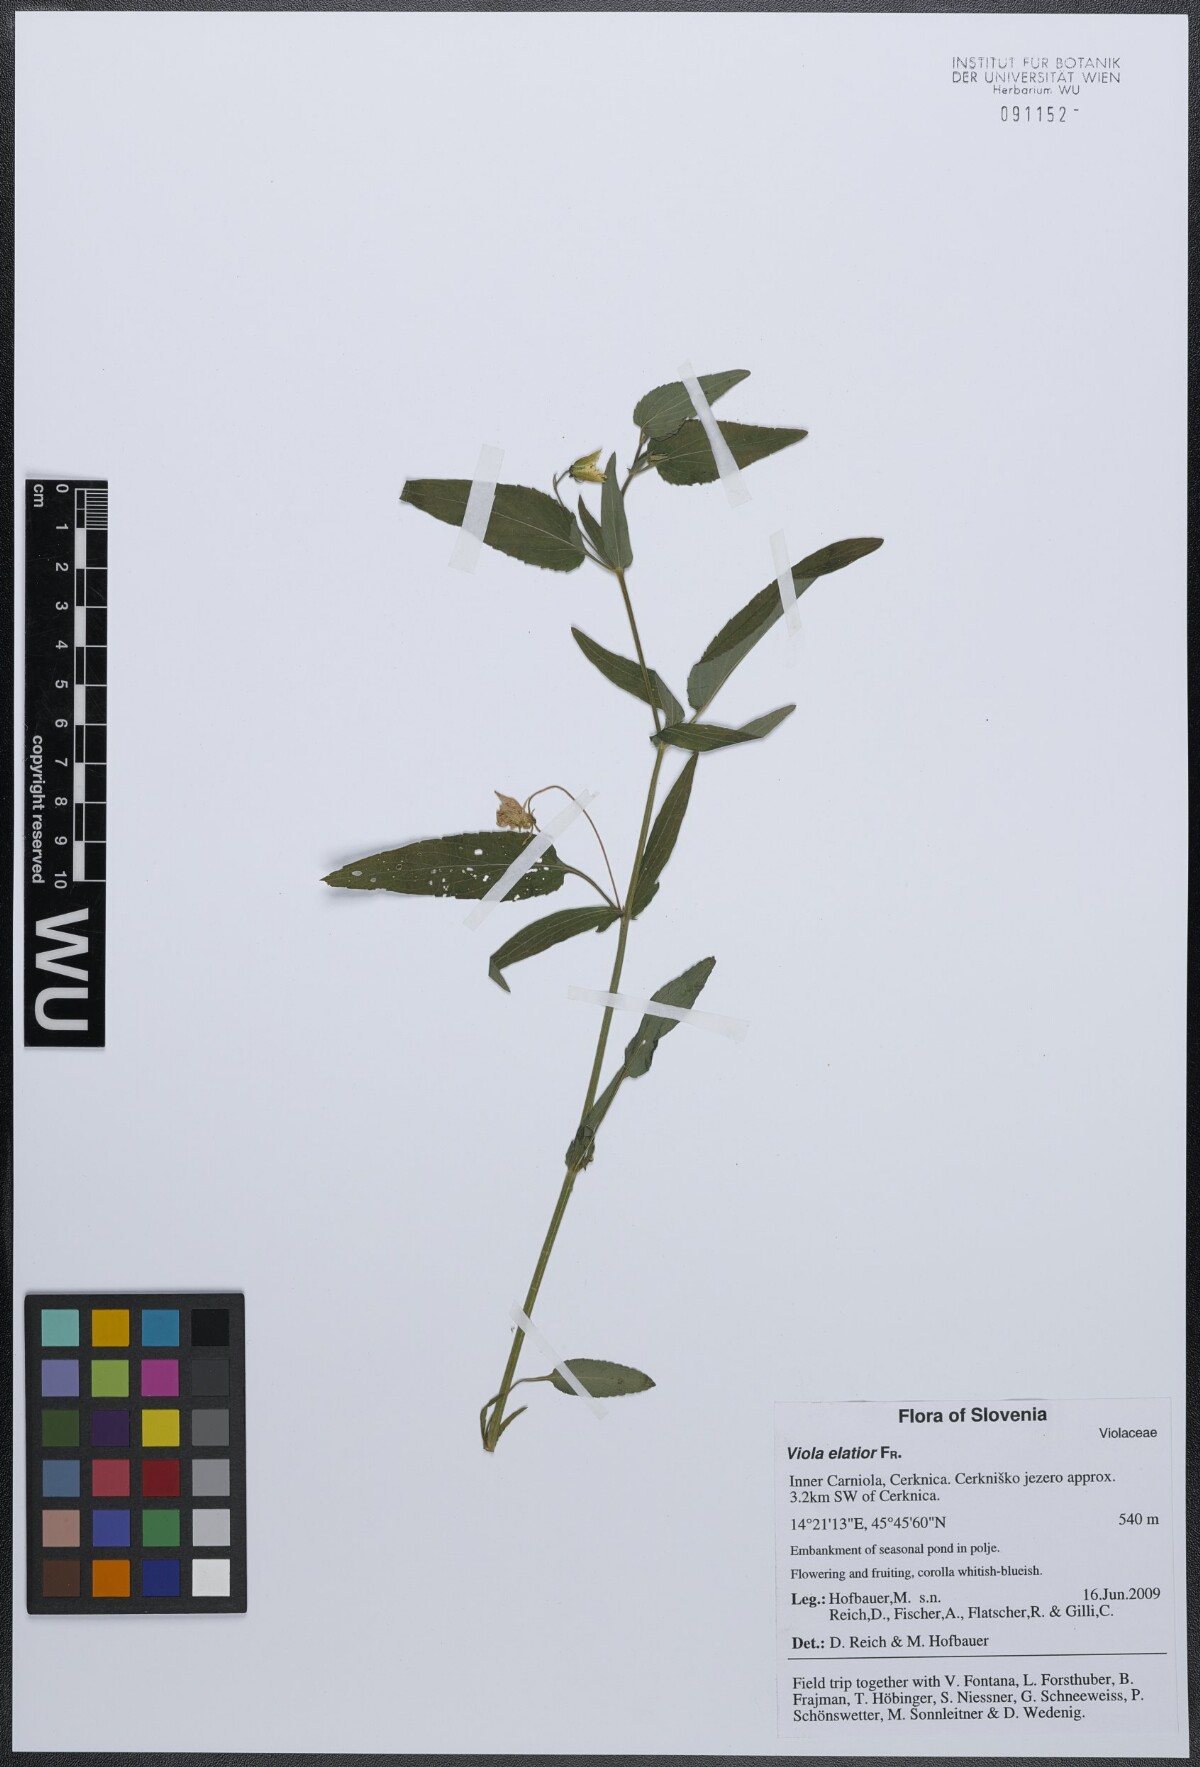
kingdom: Plantae
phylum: Tracheophyta
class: Magnoliopsida
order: Malpighiales
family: Violaceae
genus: Viola
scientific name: Viola elatior
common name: Tall violet
